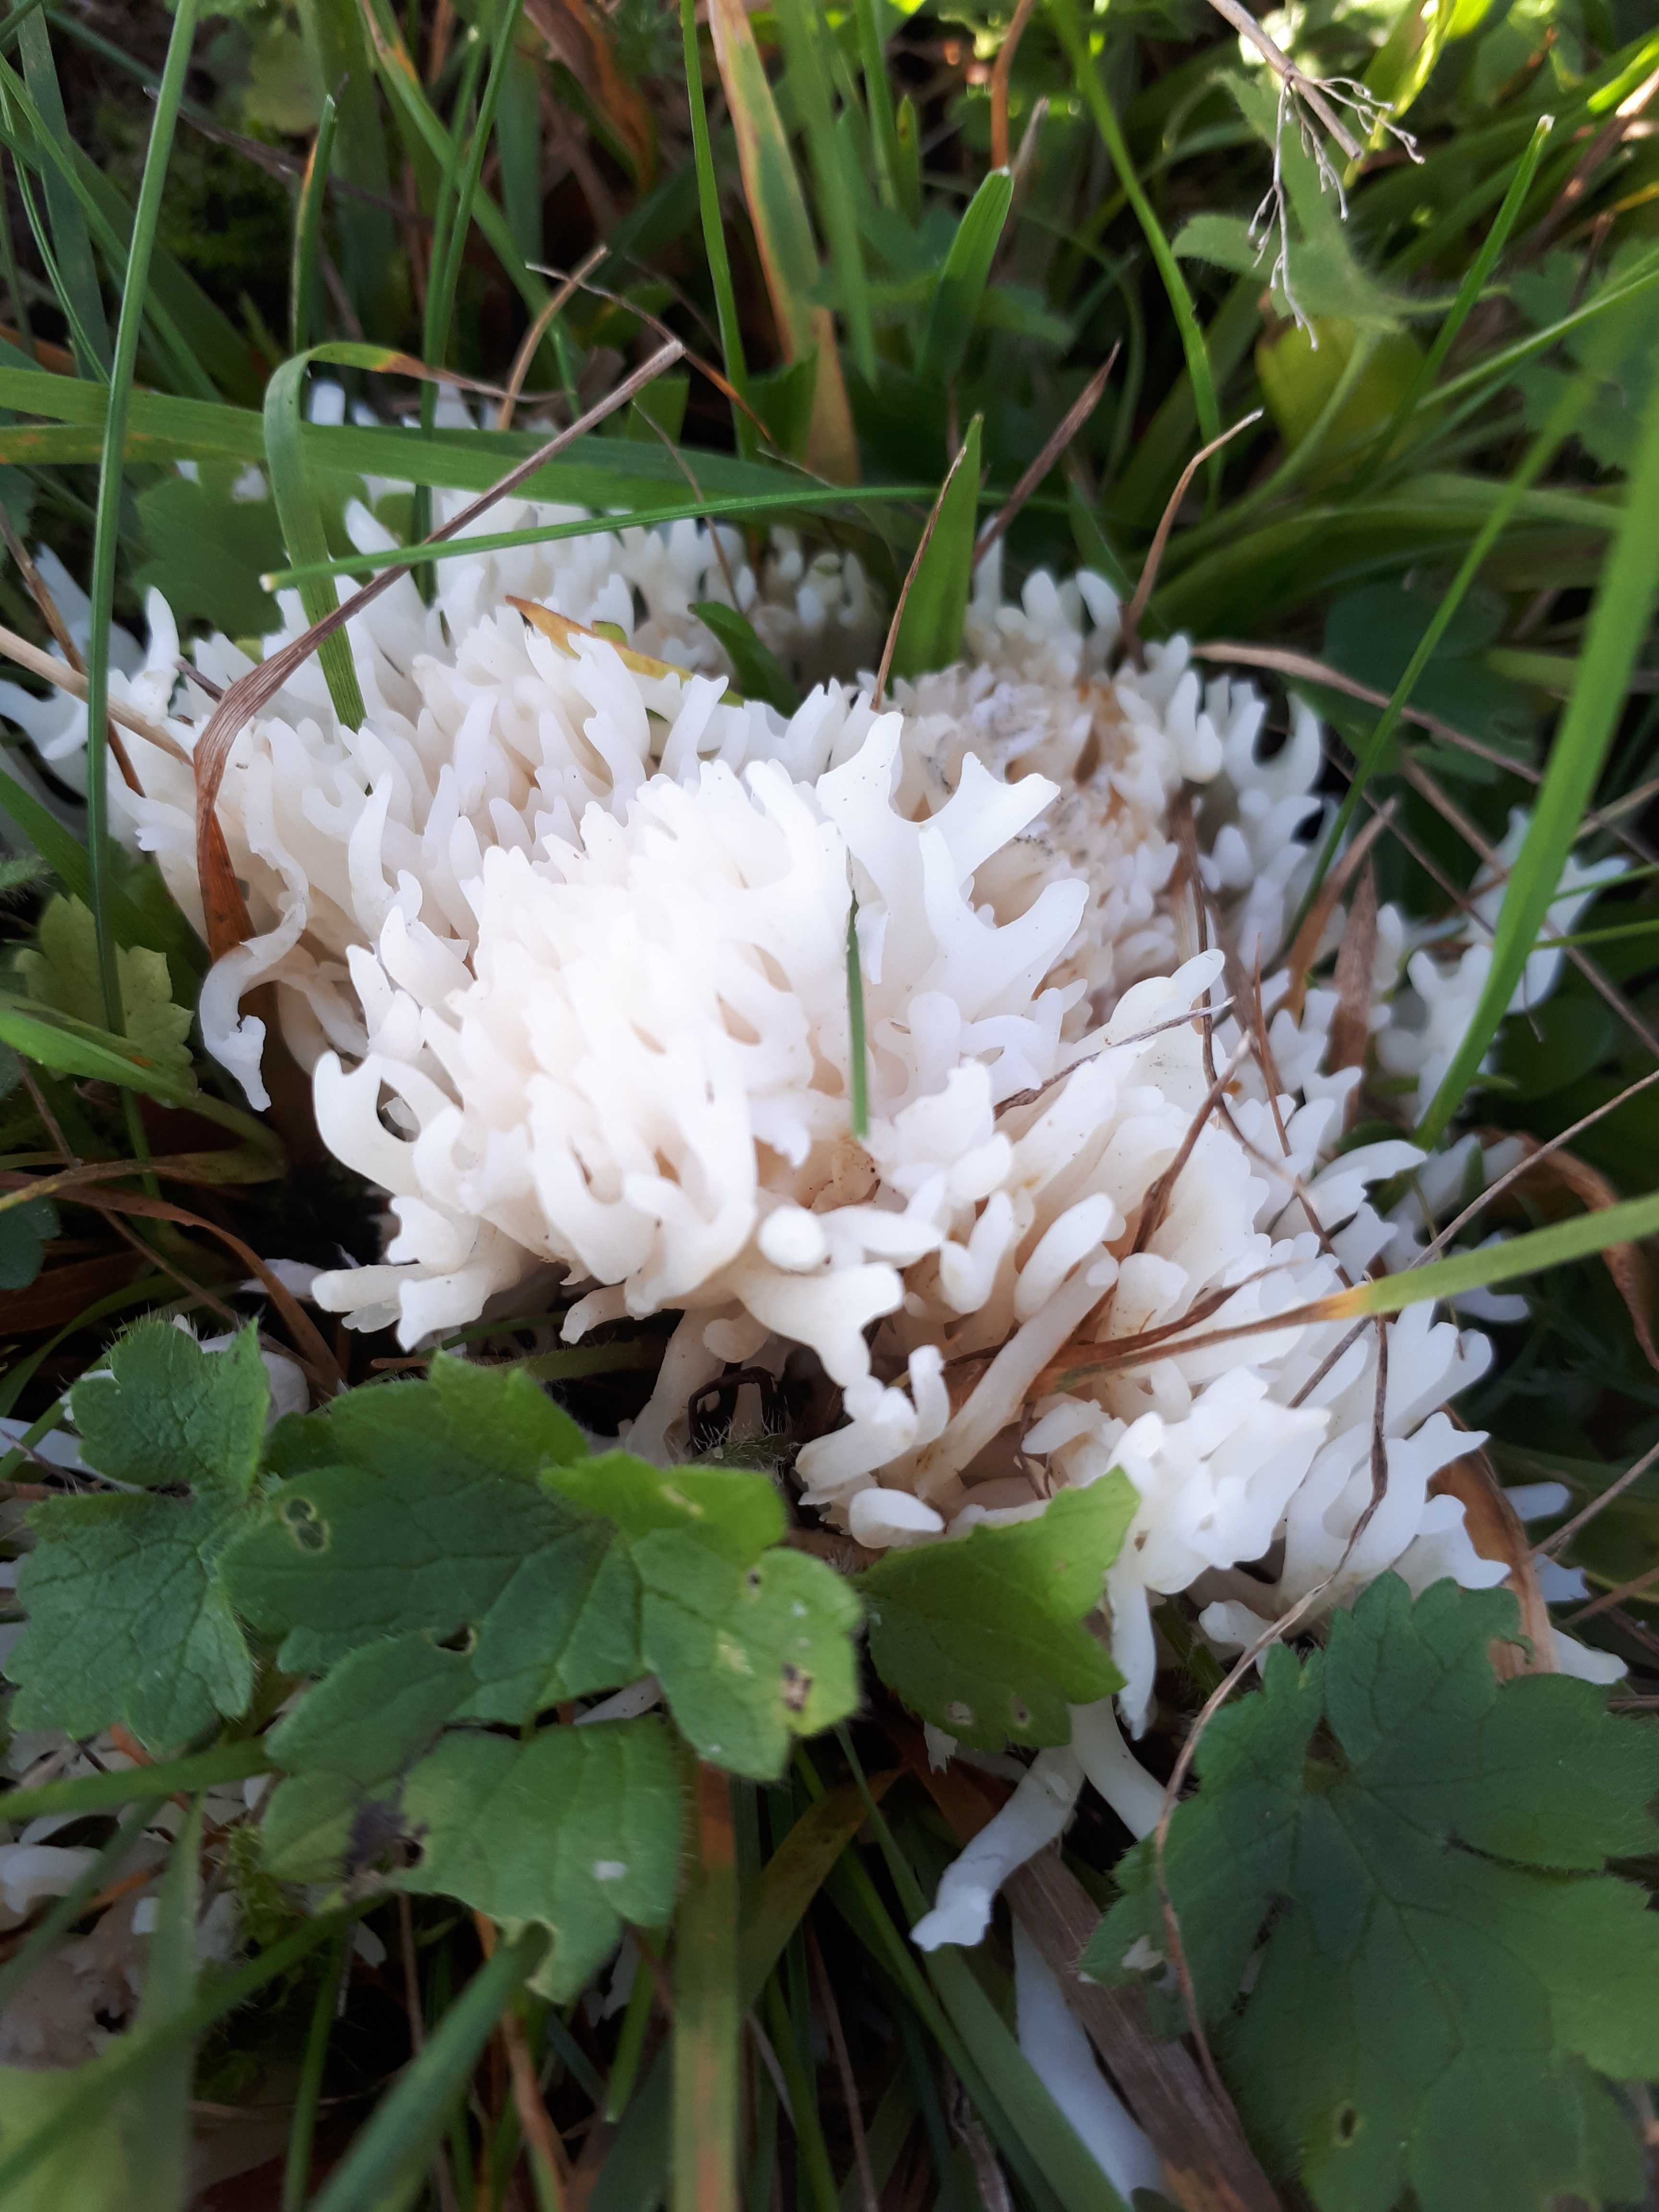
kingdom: Fungi
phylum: Basidiomycota
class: Agaricomycetes
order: Agaricales
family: Clavariaceae
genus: Ramariopsis
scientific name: Ramariopsis robusta
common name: tykgrenet køllesvamp
